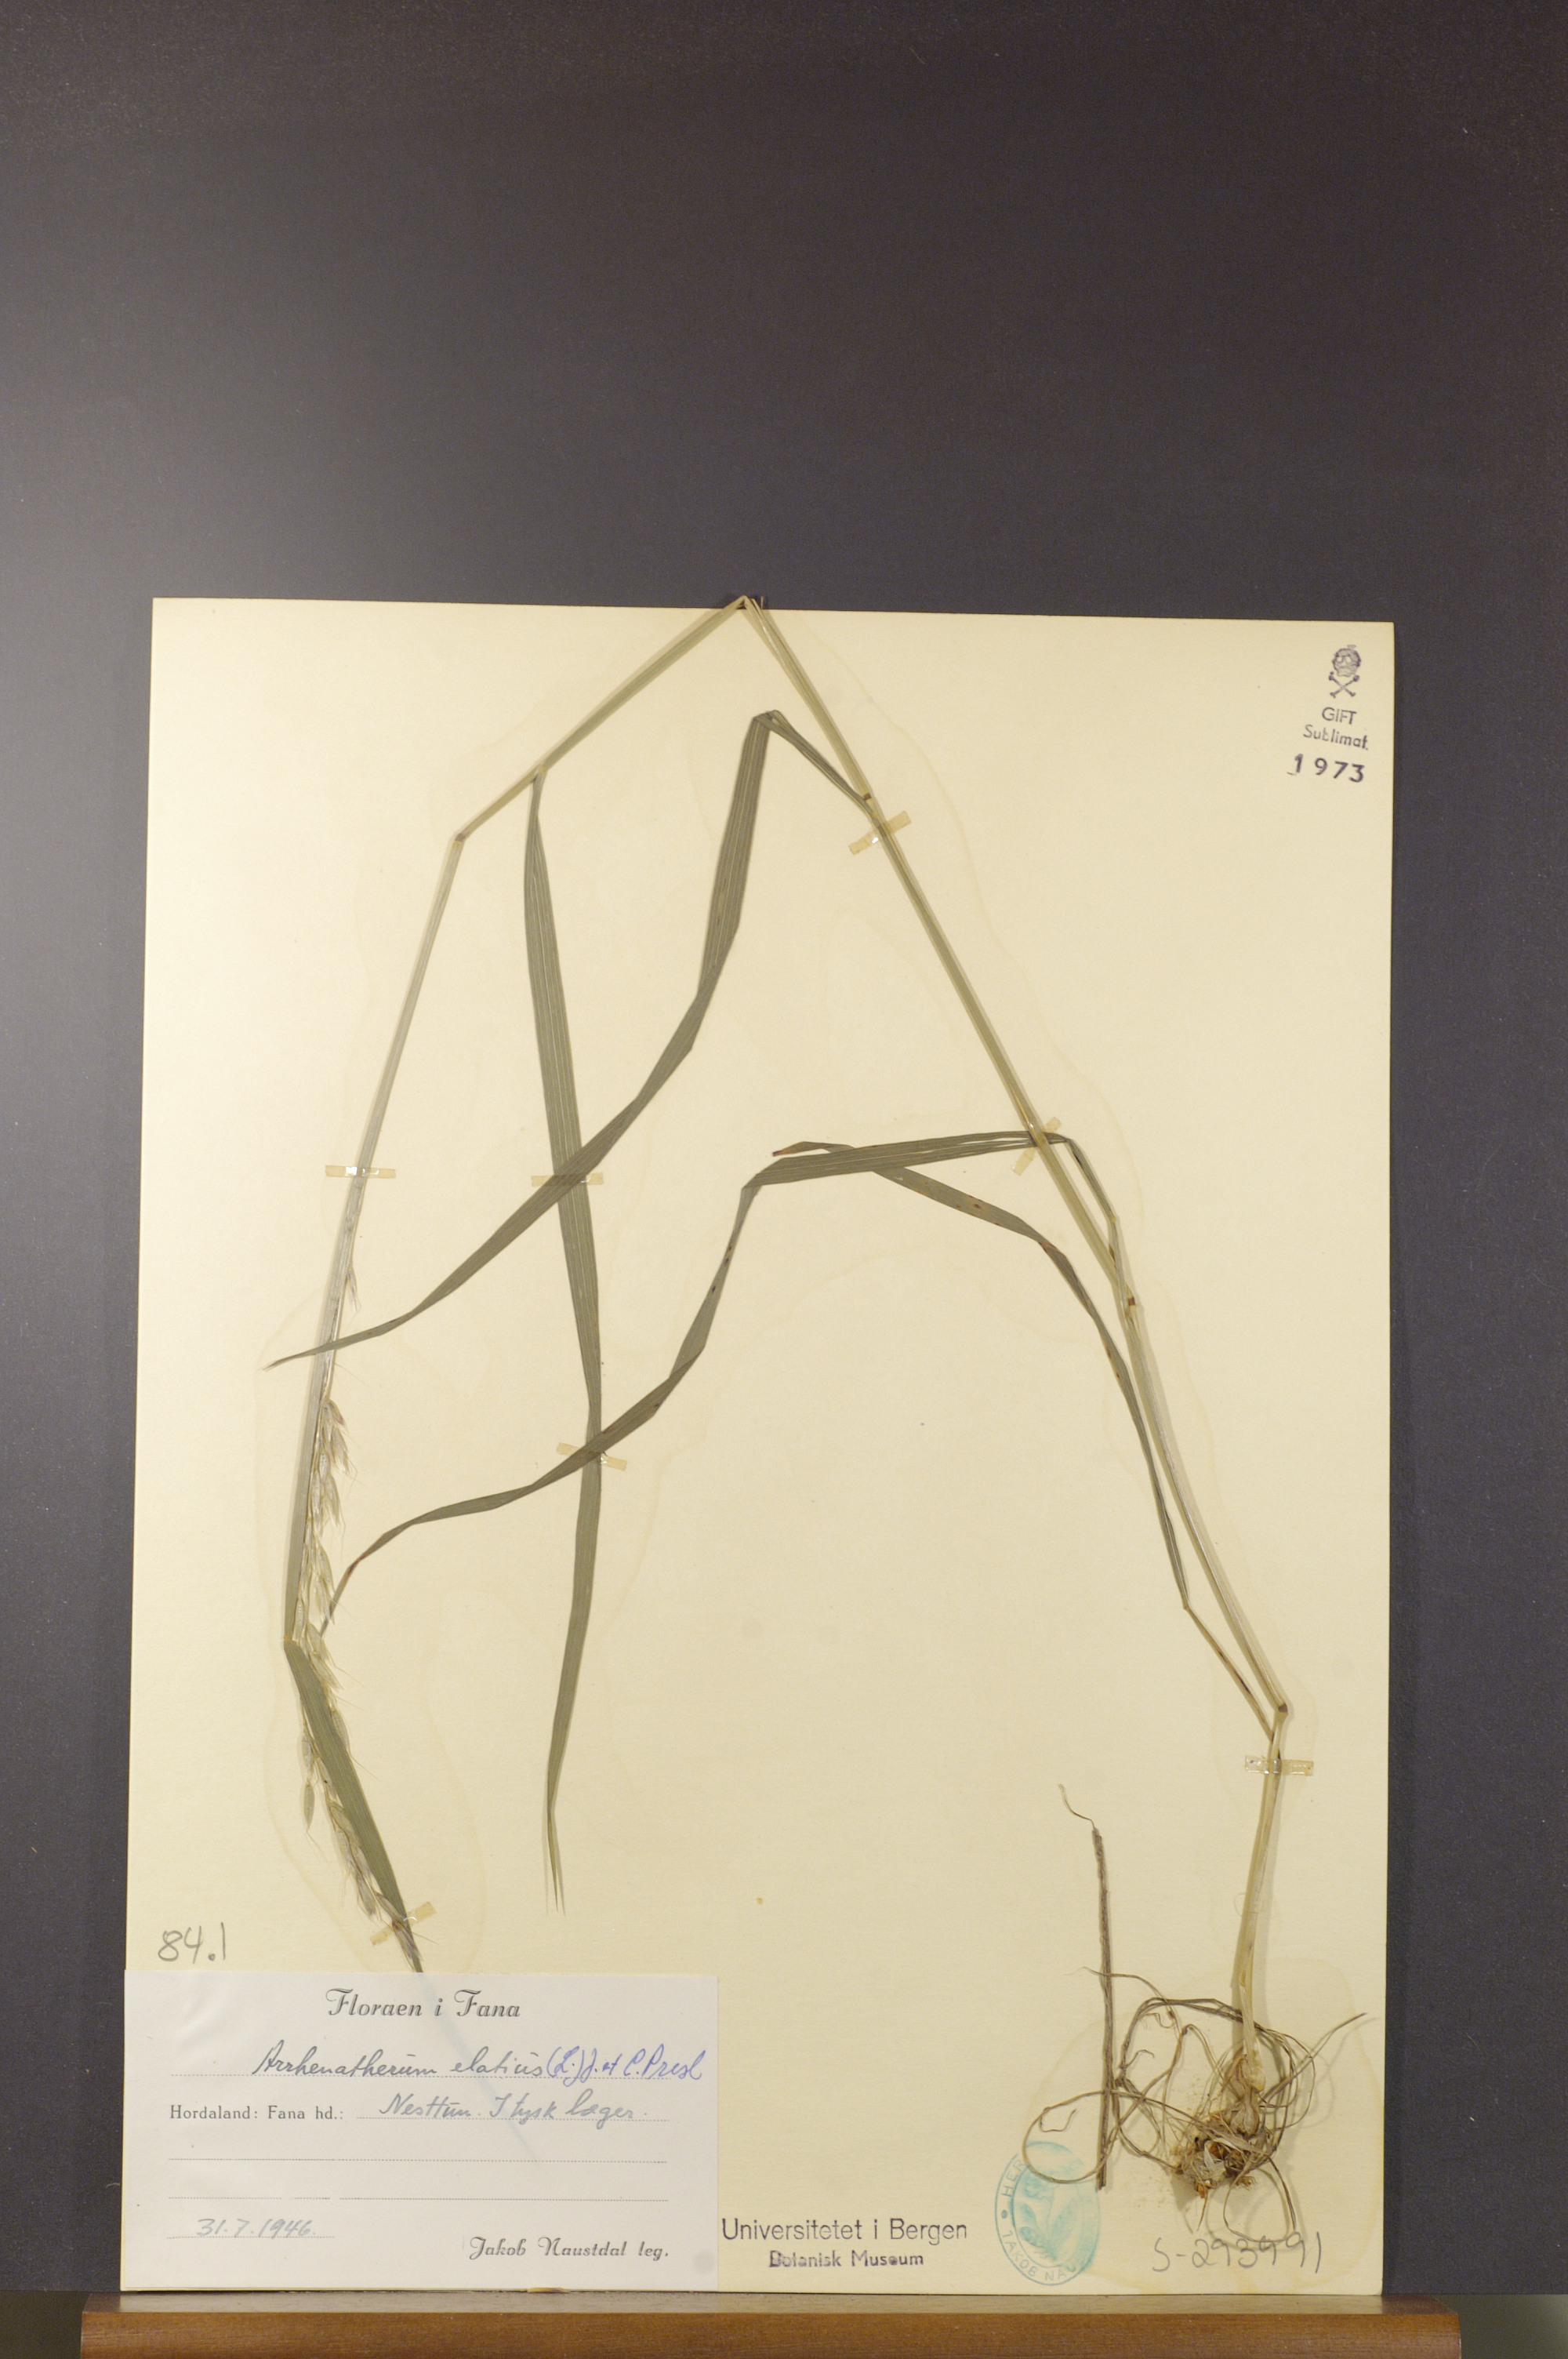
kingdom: Plantae
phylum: Tracheophyta
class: Liliopsida
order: Poales
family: Poaceae
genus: Arrhenatherum
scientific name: Arrhenatherum elatius
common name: Tall oatgrass
